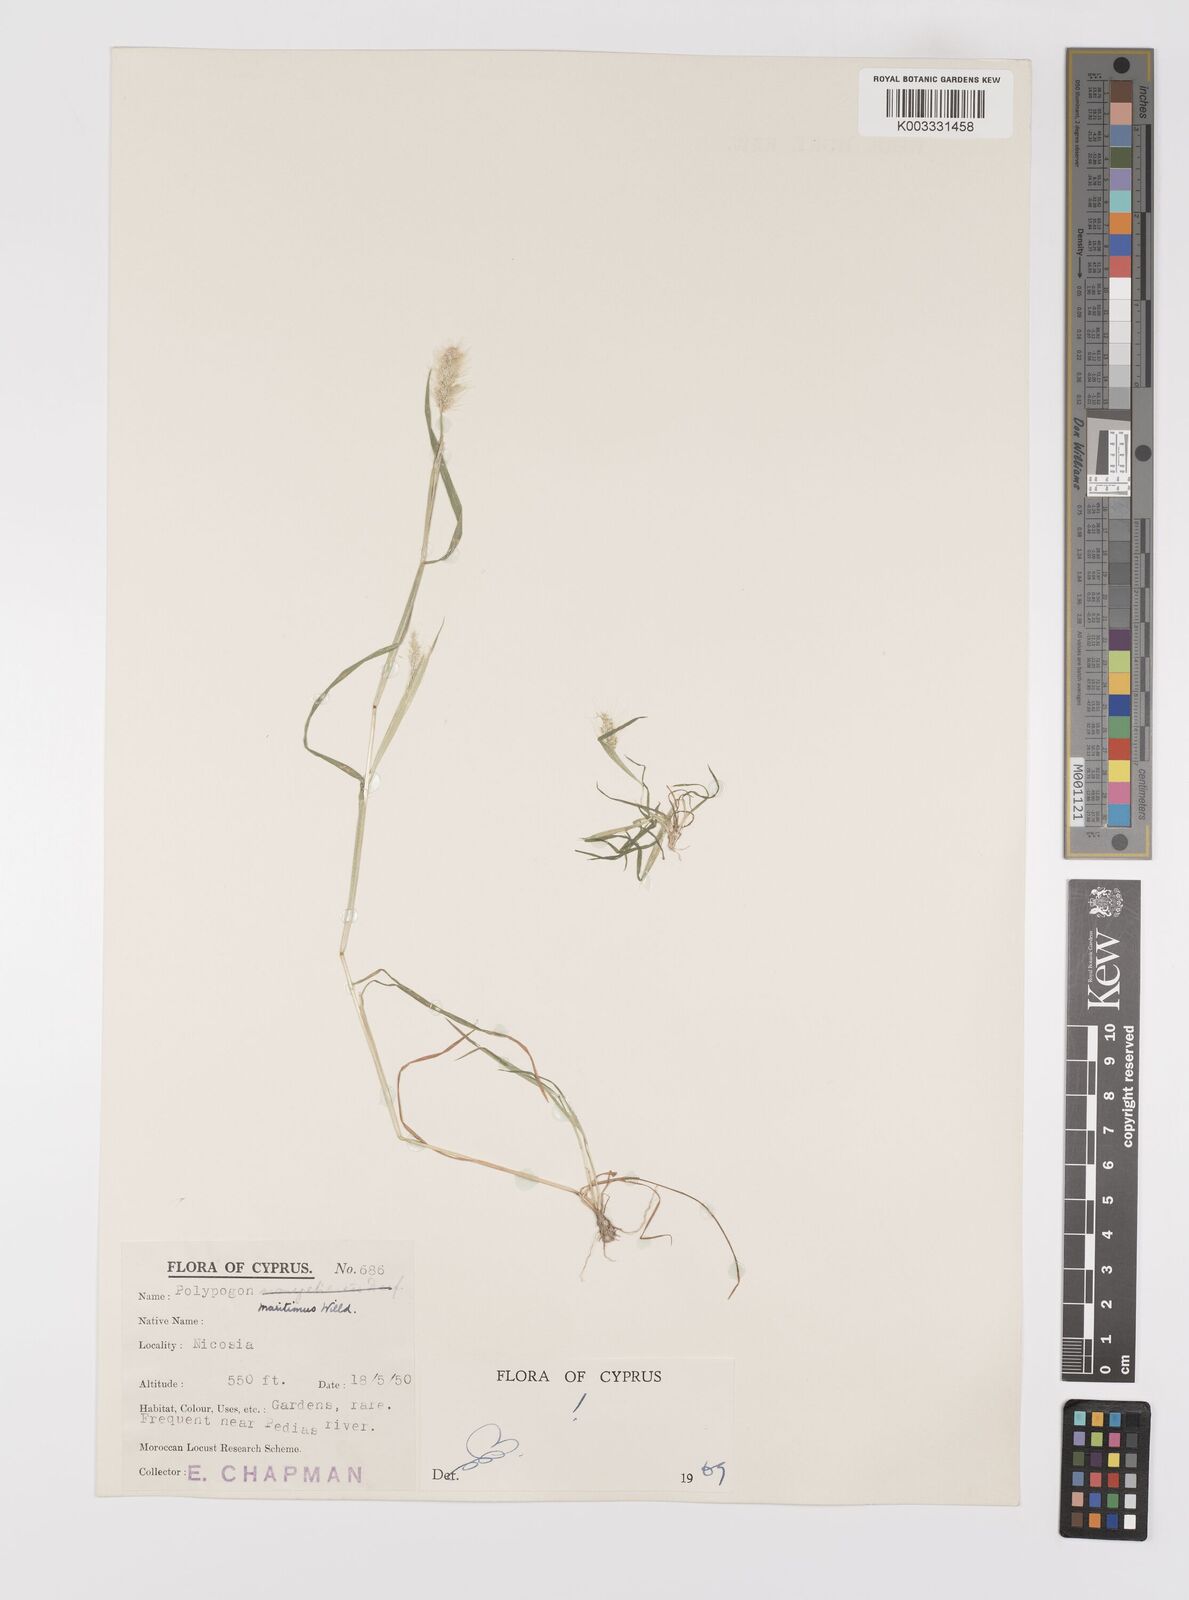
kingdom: Plantae
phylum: Tracheophyta
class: Liliopsida
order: Poales
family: Poaceae
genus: Polypogon
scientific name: Polypogon maritimus
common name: Mediterranean rabbitsfoot grass
